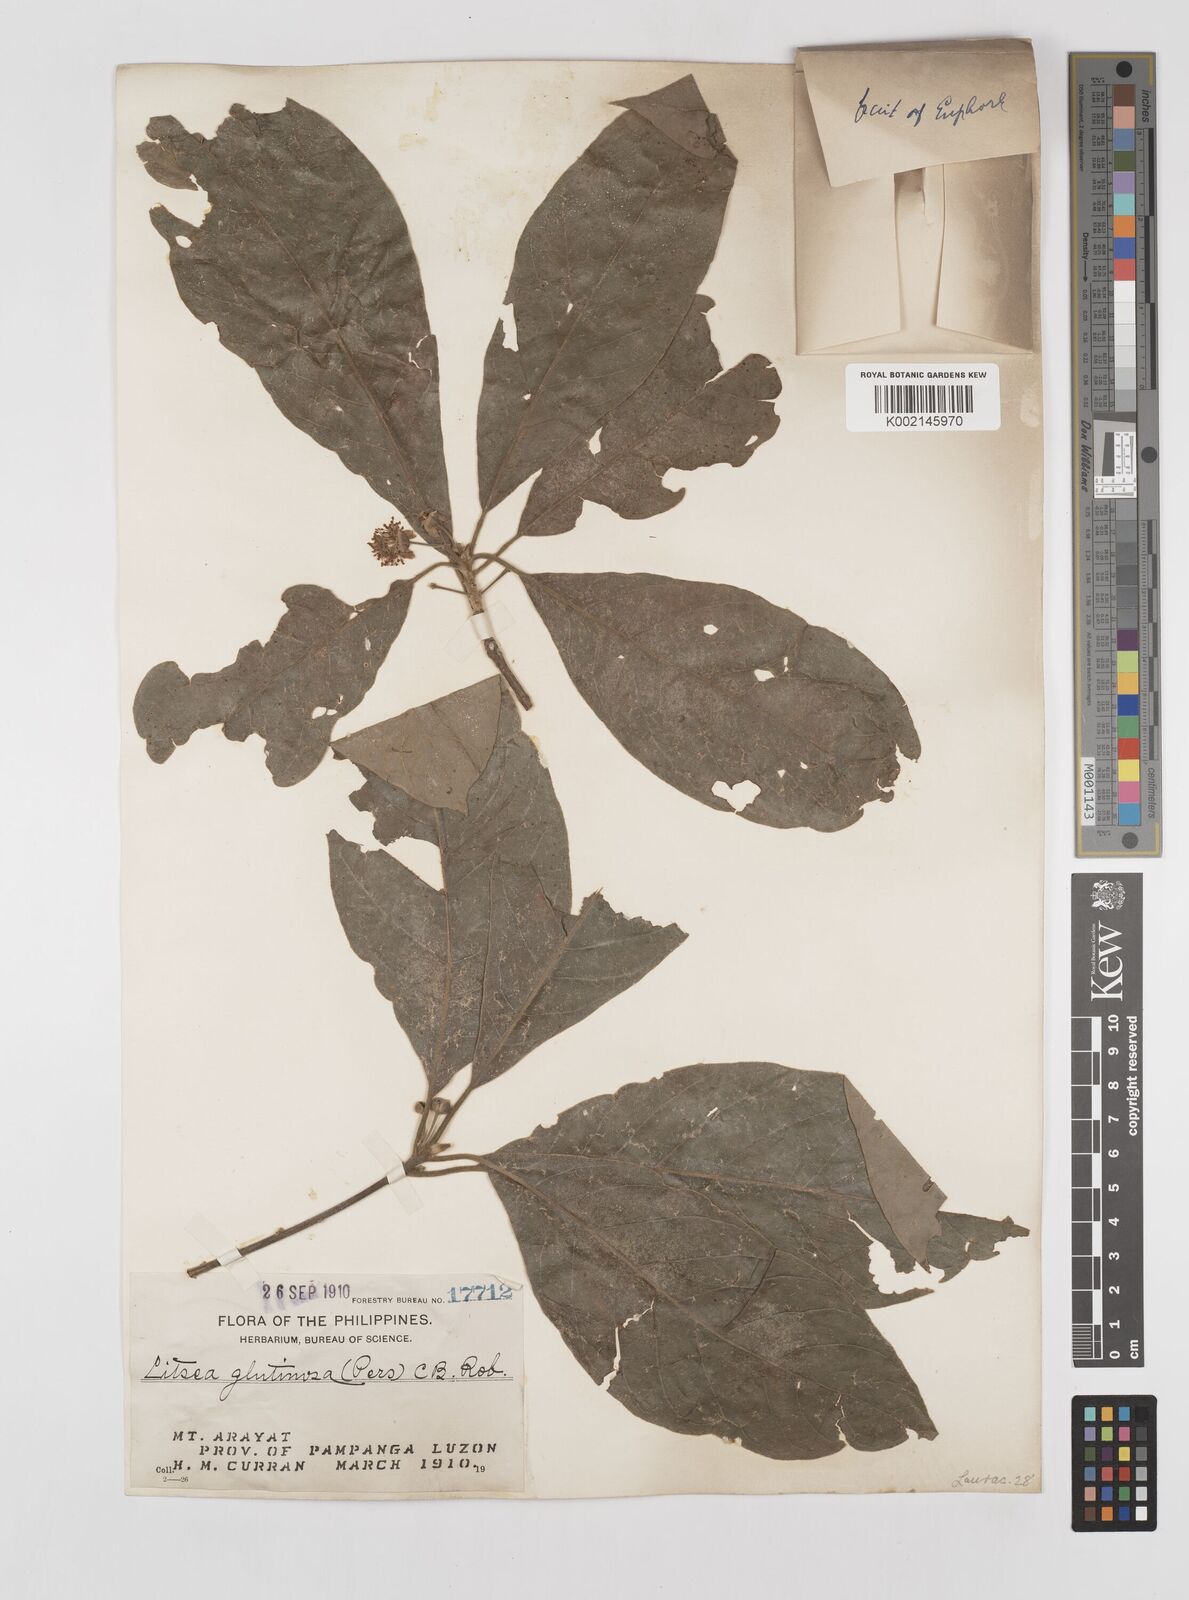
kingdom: Plantae
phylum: Tracheophyta
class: Magnoliopsida
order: Laurales
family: Lauraceae
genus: Litsea
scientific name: Litsea glutinosa
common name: Indian-laurel
